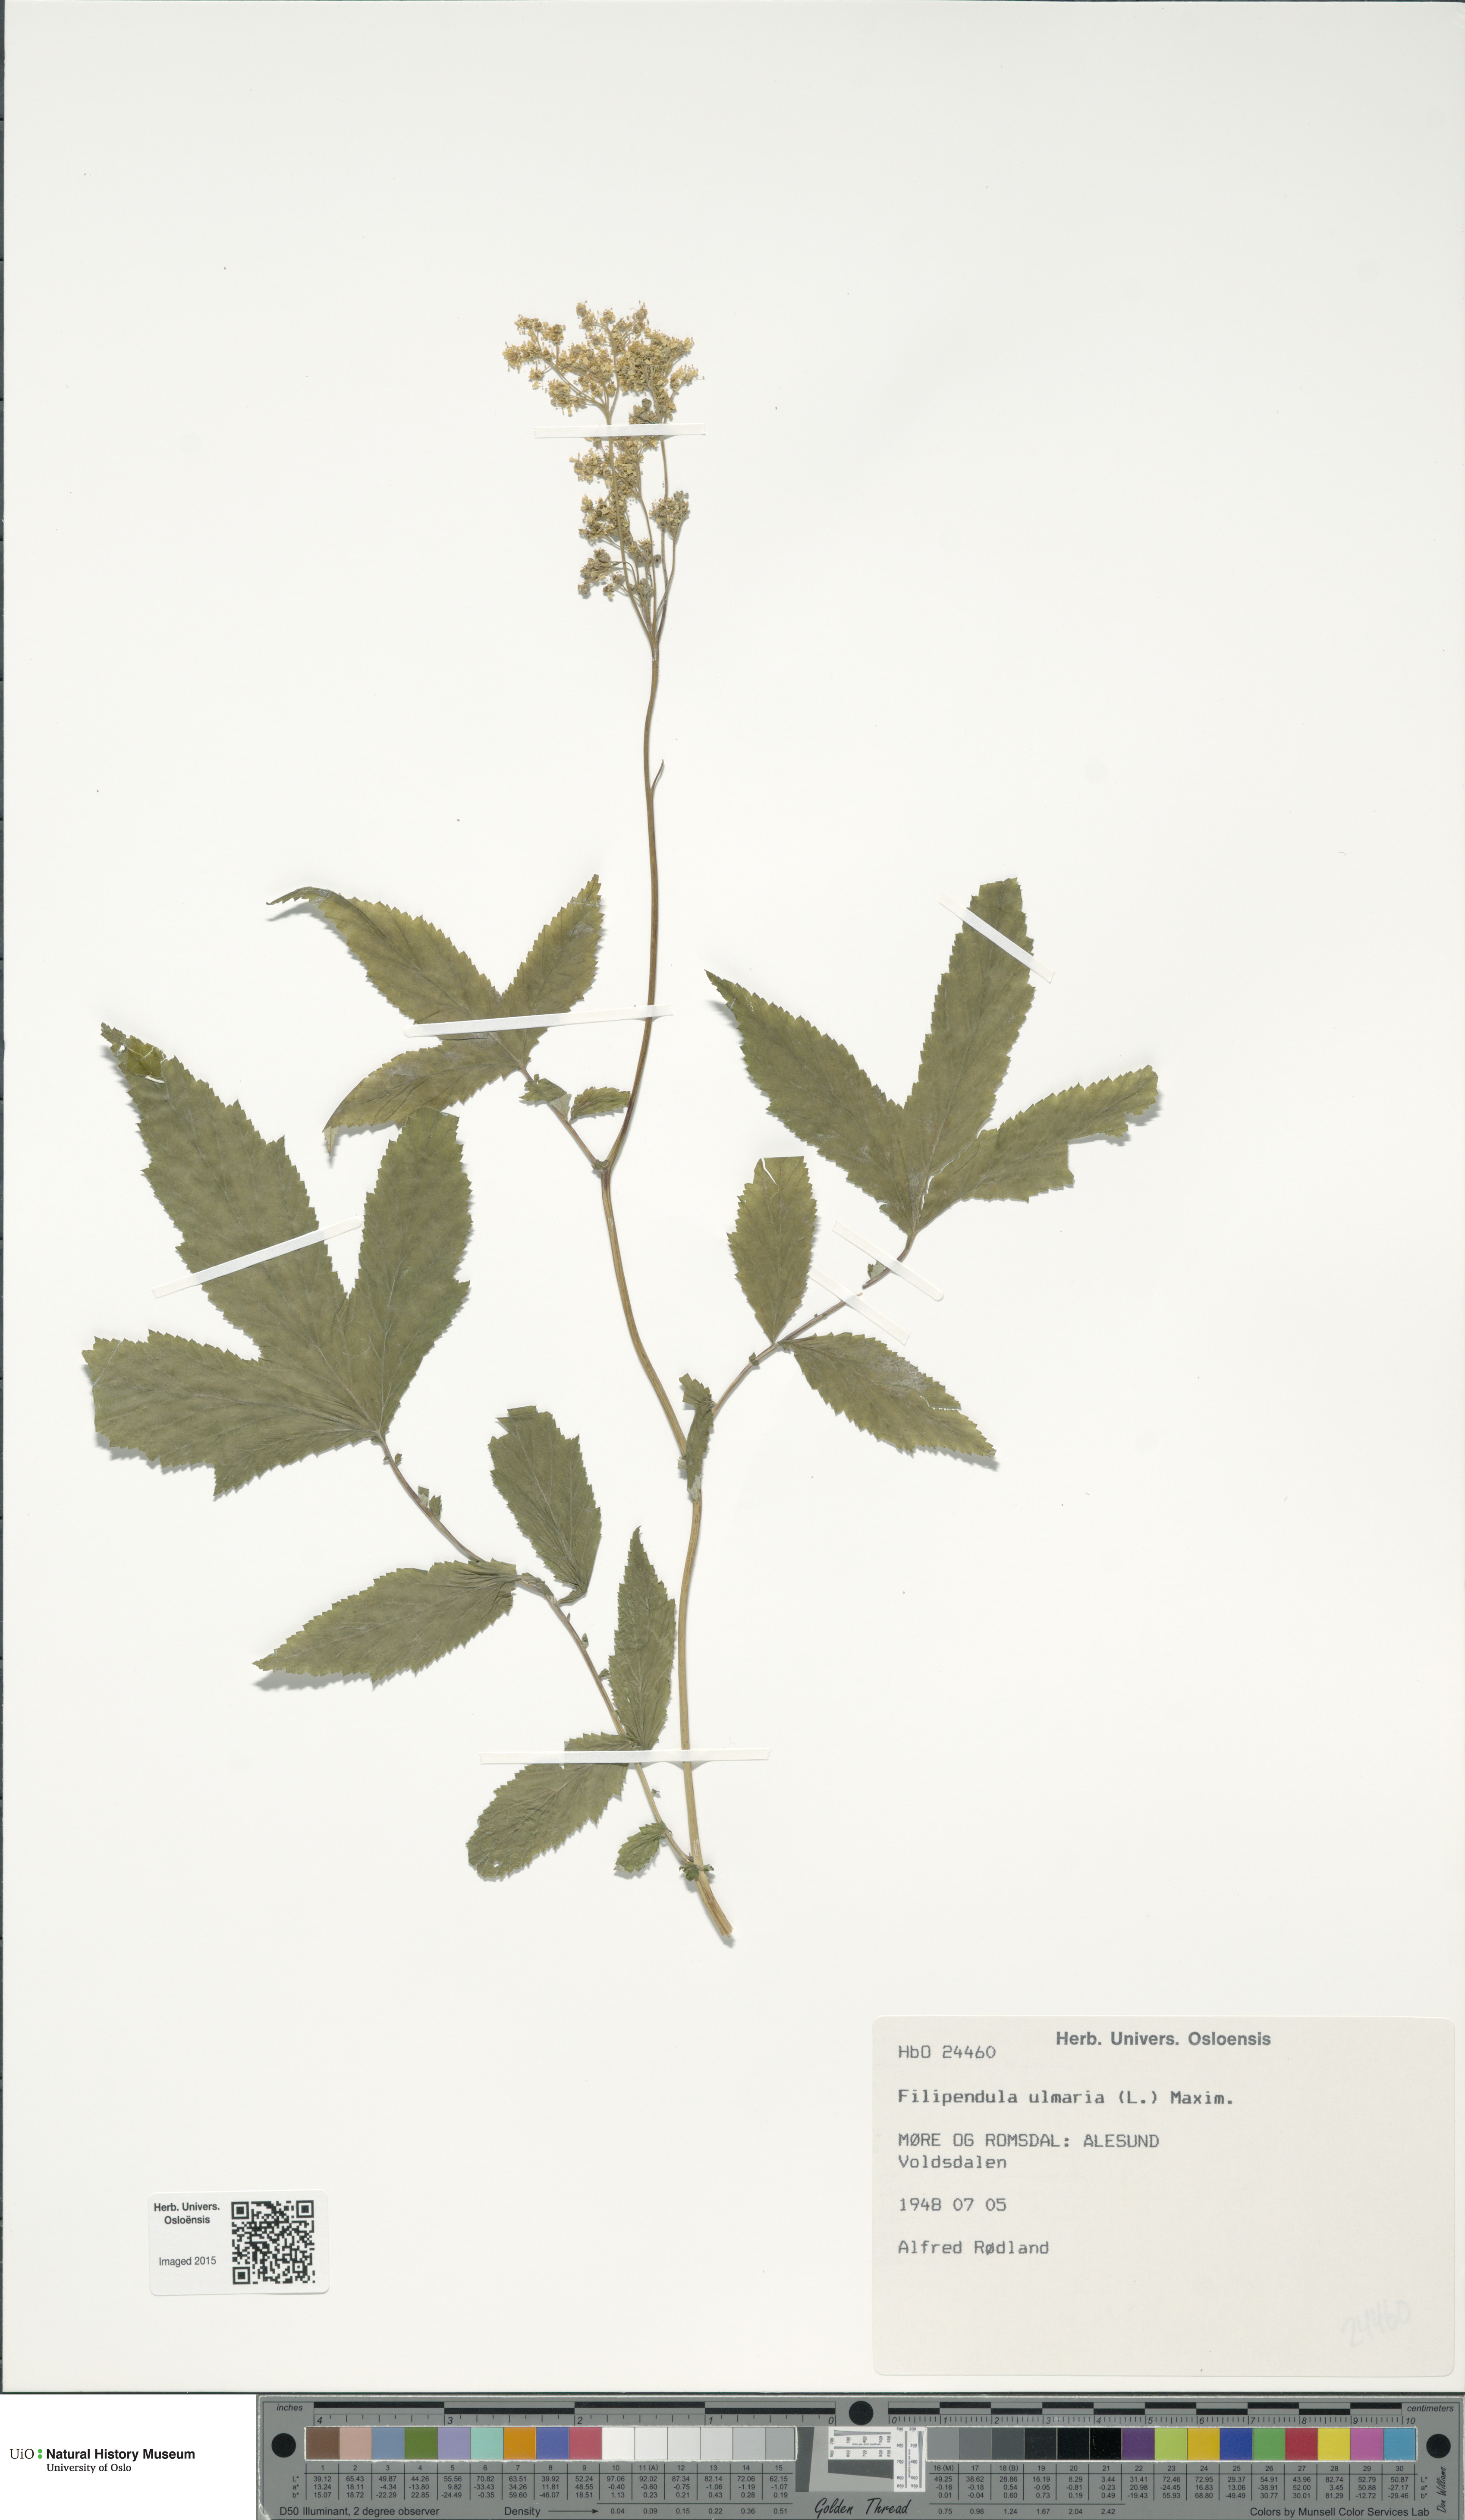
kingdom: Plantae
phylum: Tracheophyta
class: Magnoliopsida
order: Rosales
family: Rosaceae
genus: Filipendula
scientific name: Filipendula ulmaria
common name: Meadowsweet
